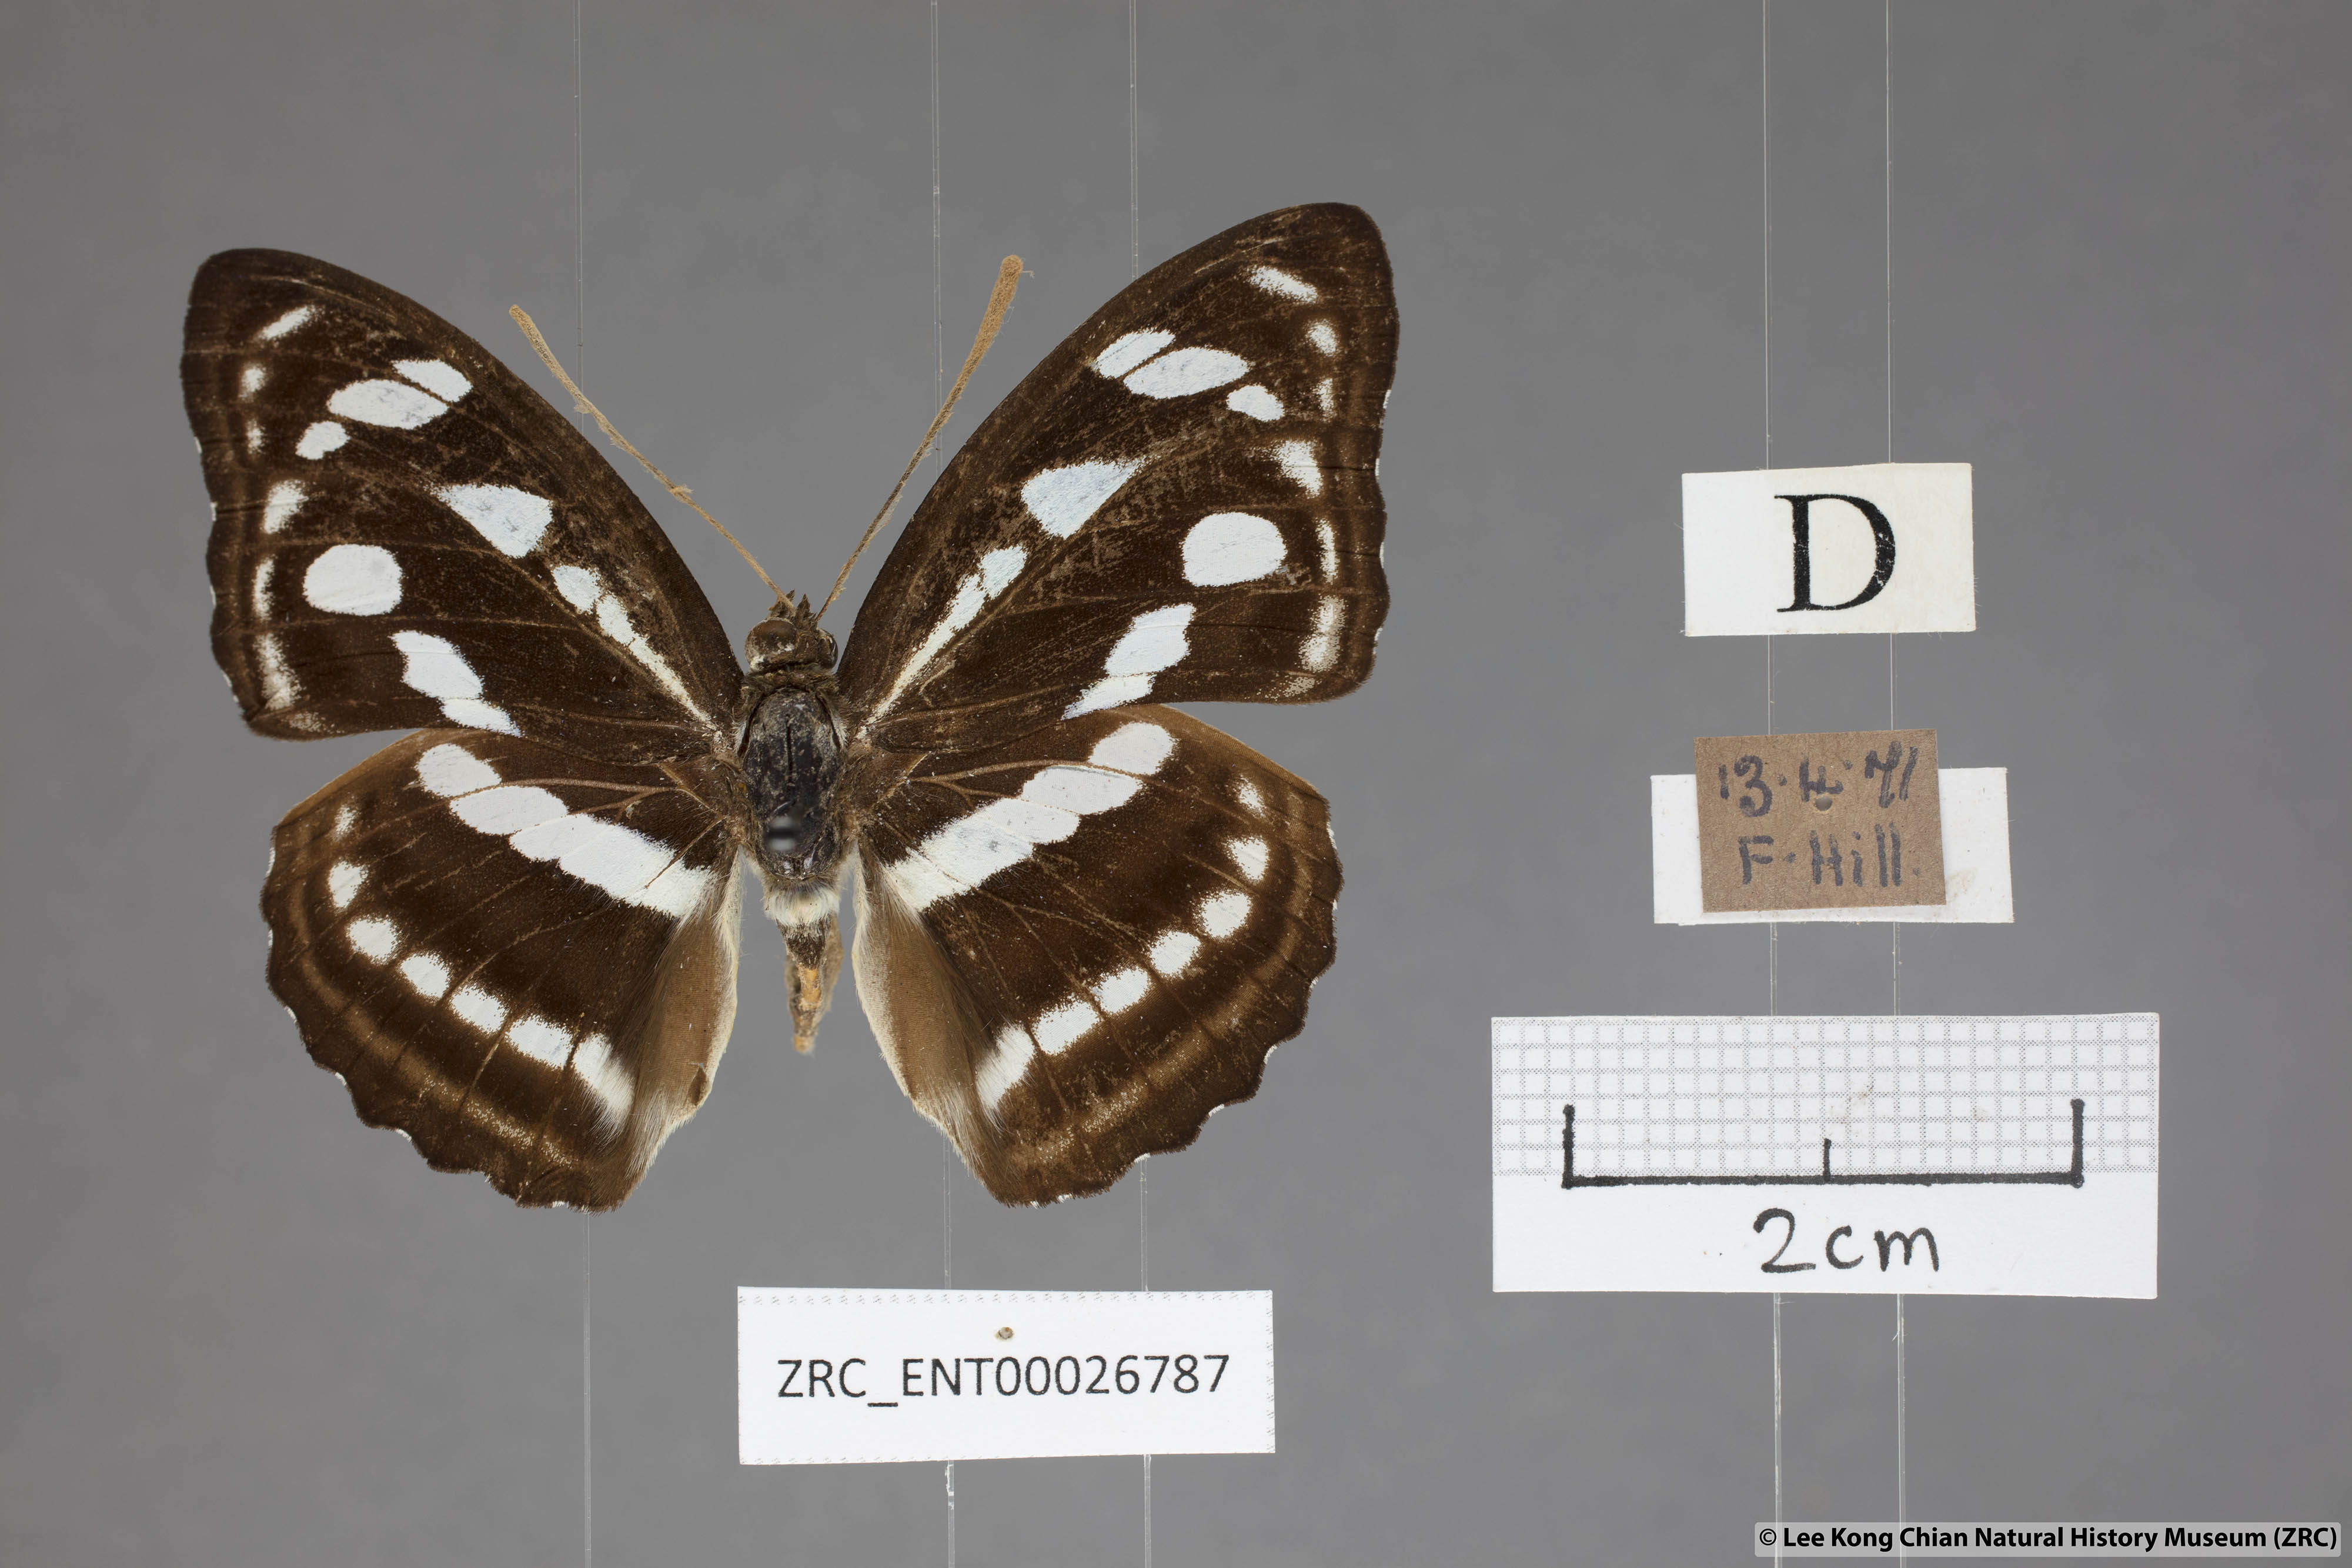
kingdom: Animalia
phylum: Arthropoda
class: Insecta
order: Lepidoptera
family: Nymphalidae
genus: Parathyma
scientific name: Parathyma reta
